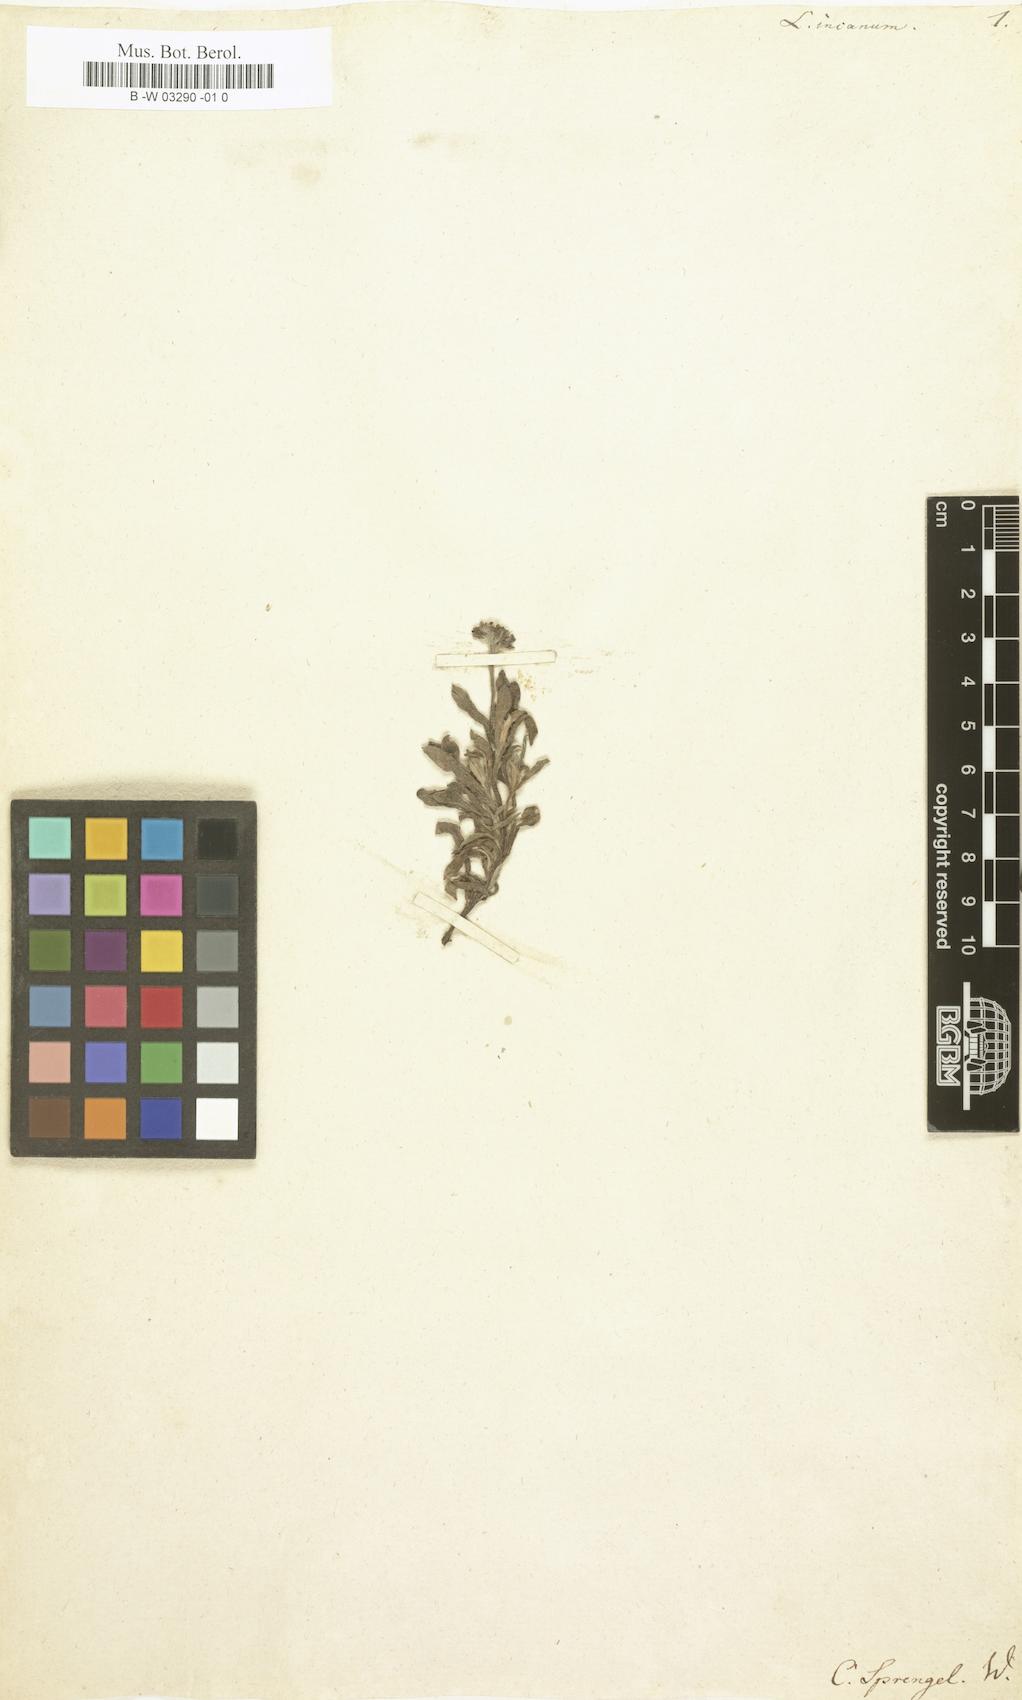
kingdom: Plantae
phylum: Tracheophyta
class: Magnoliopsida
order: Boraginales
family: Heliotropiaceae
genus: Heliotropium
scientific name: Heliotropium anomalum
